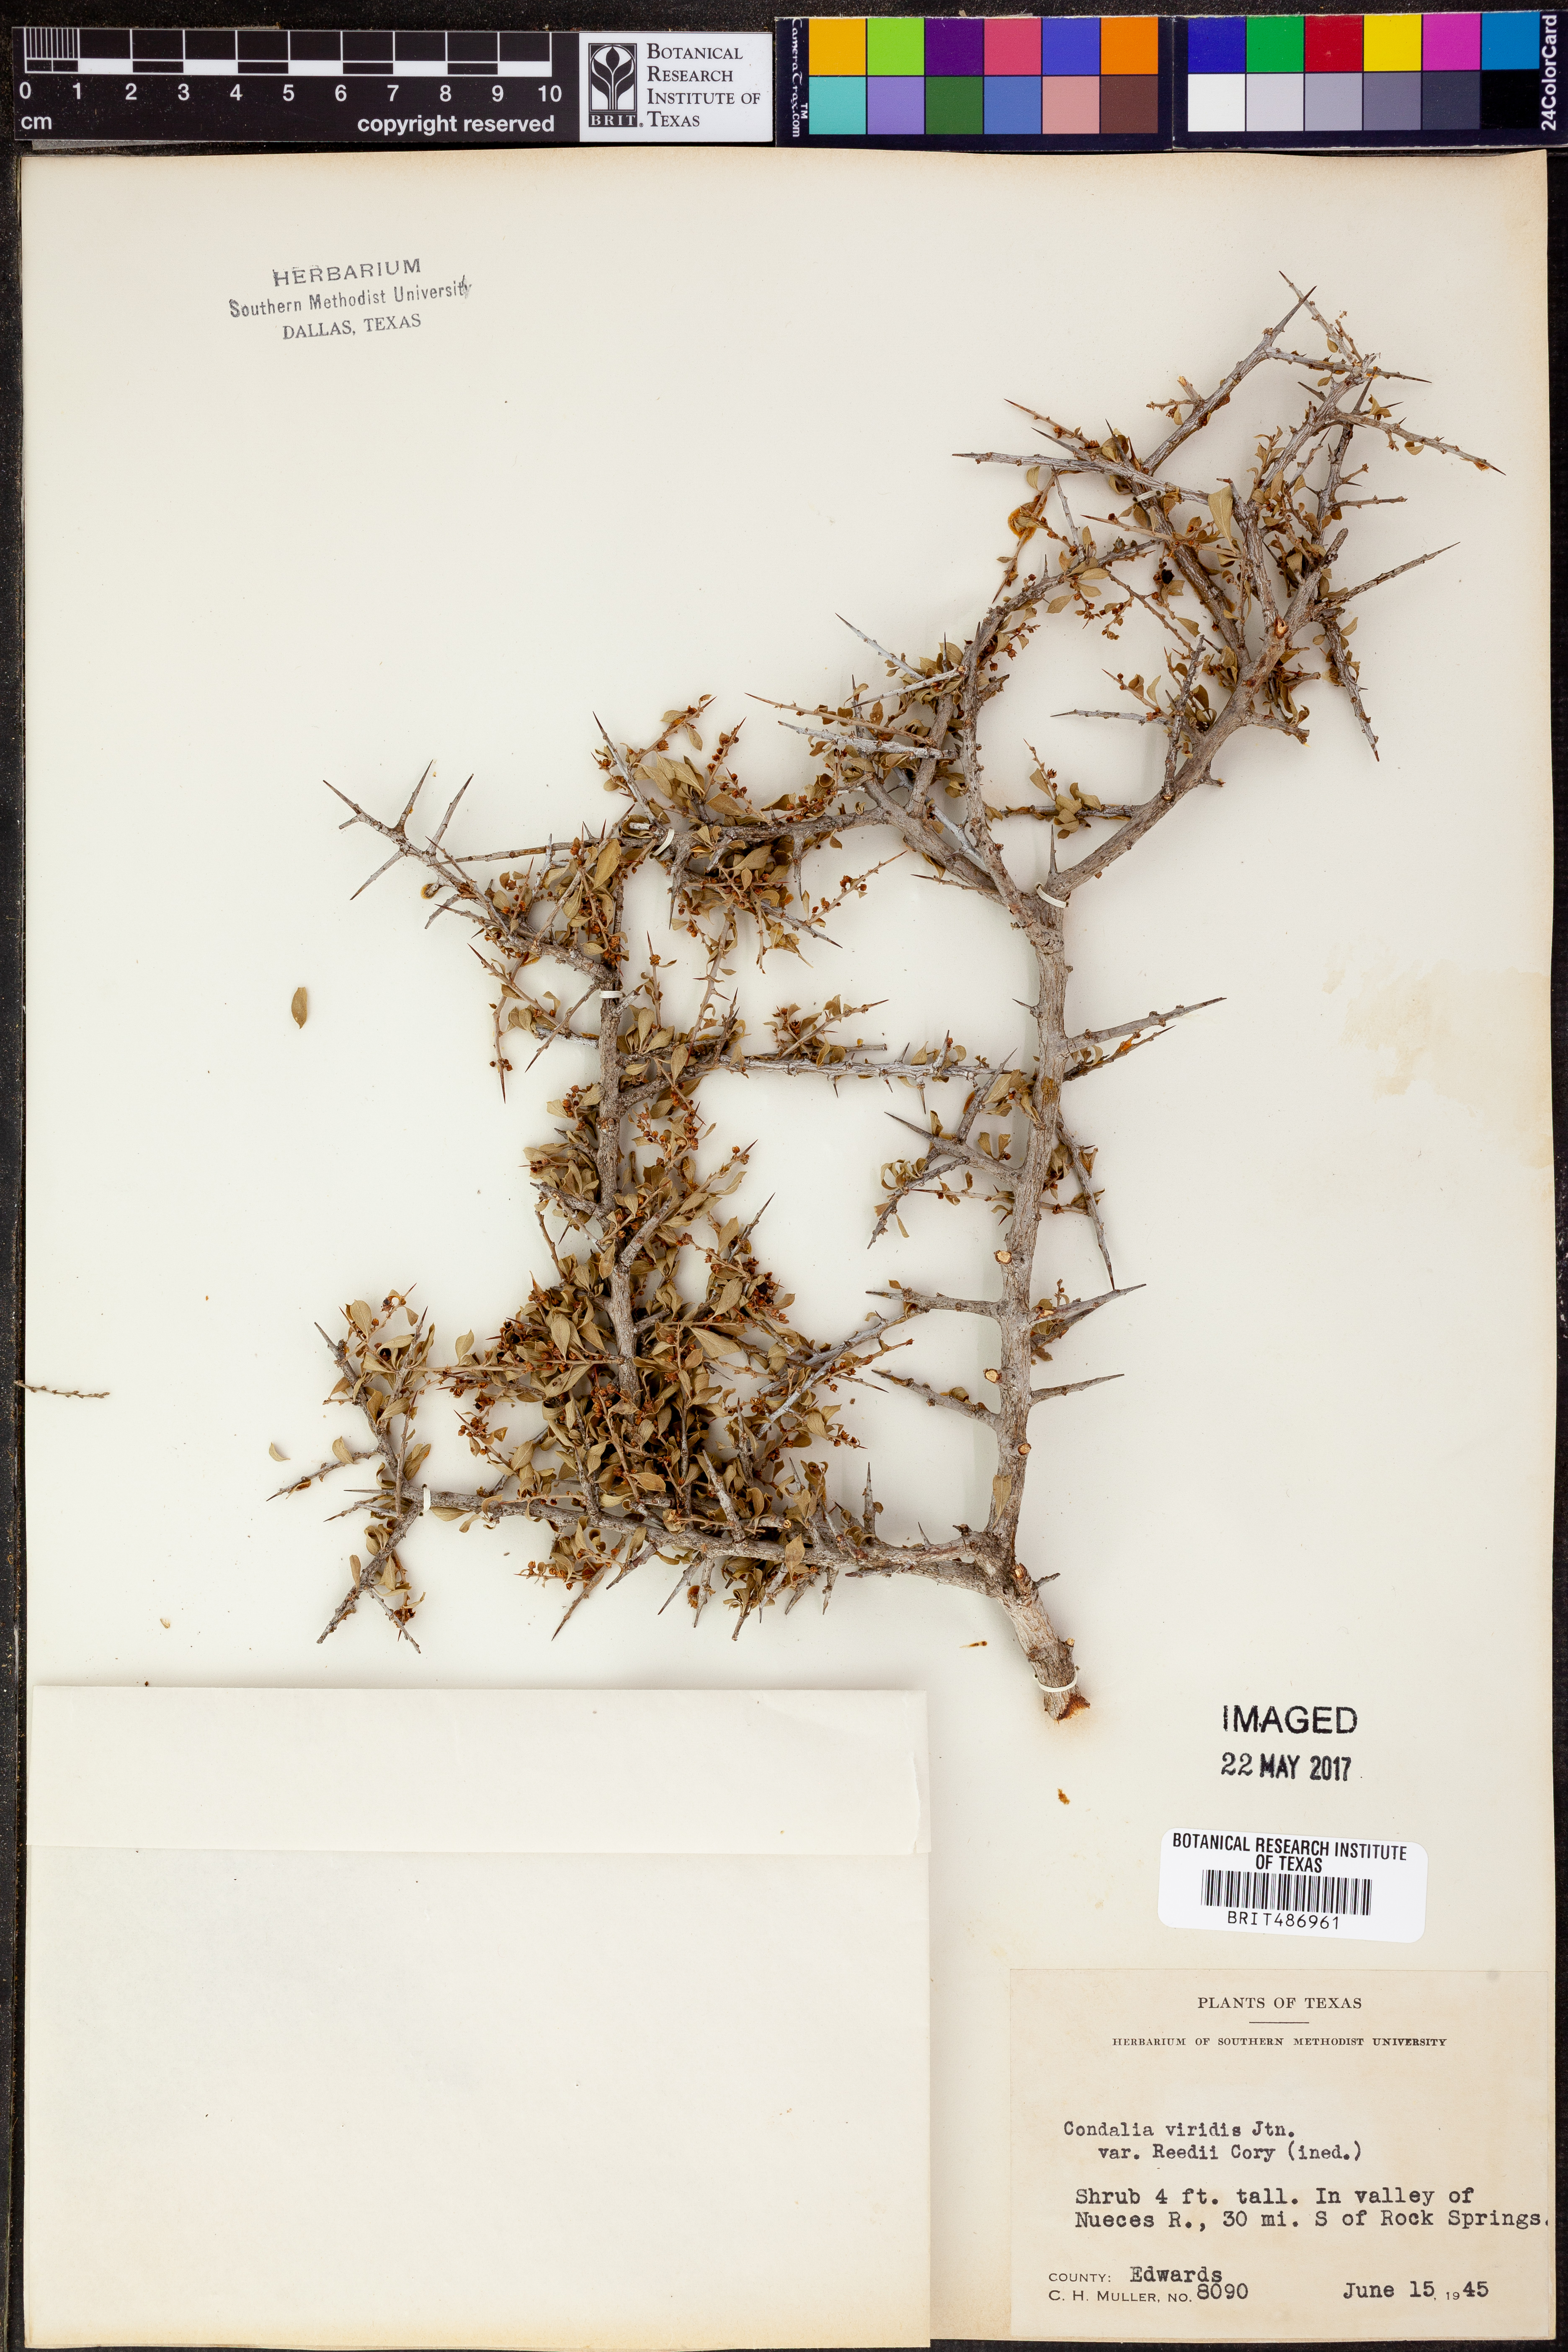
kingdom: Plantae
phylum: Tracheophyta
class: Magnoliopsida
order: Rosales
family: Rhamnaceae
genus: Condalia
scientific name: Condalia viridis
